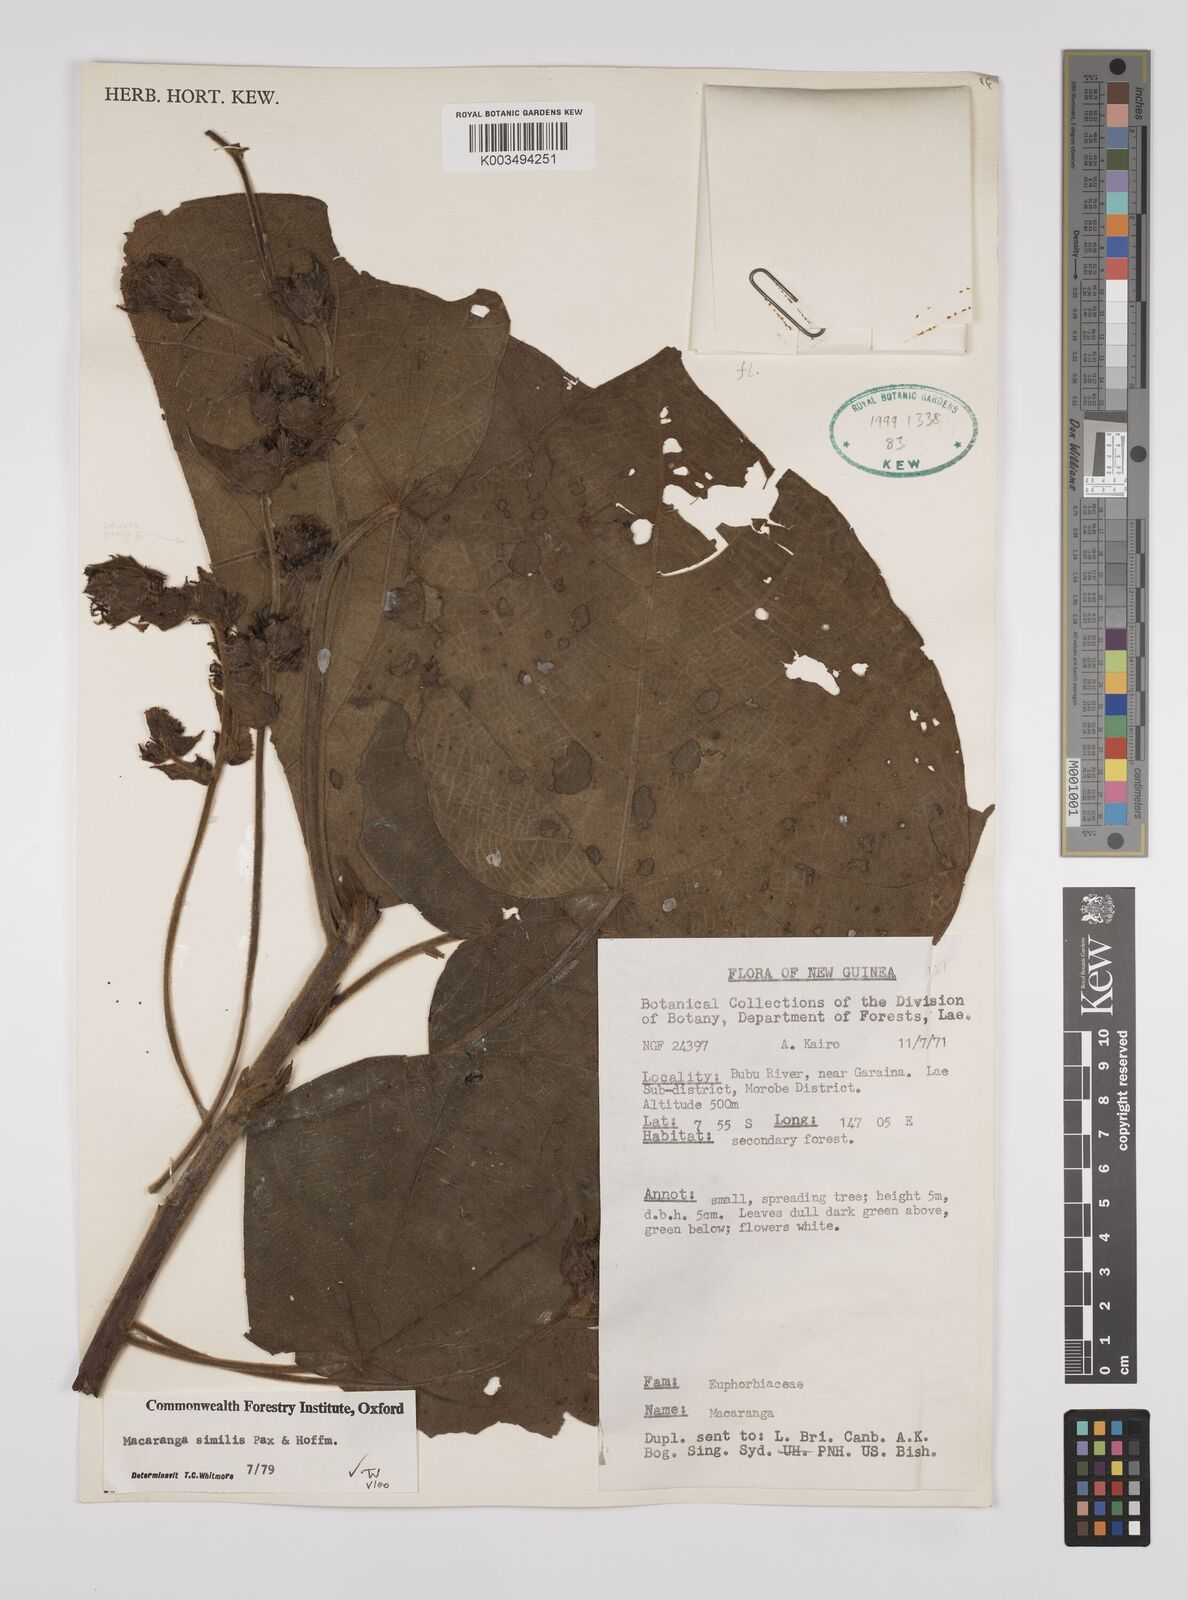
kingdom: Plantae
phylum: Tracheophyta
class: Magnoliopsida
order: Malpighiales
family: Euphorbiaceae
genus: Macaranga
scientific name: Macaranga similis
